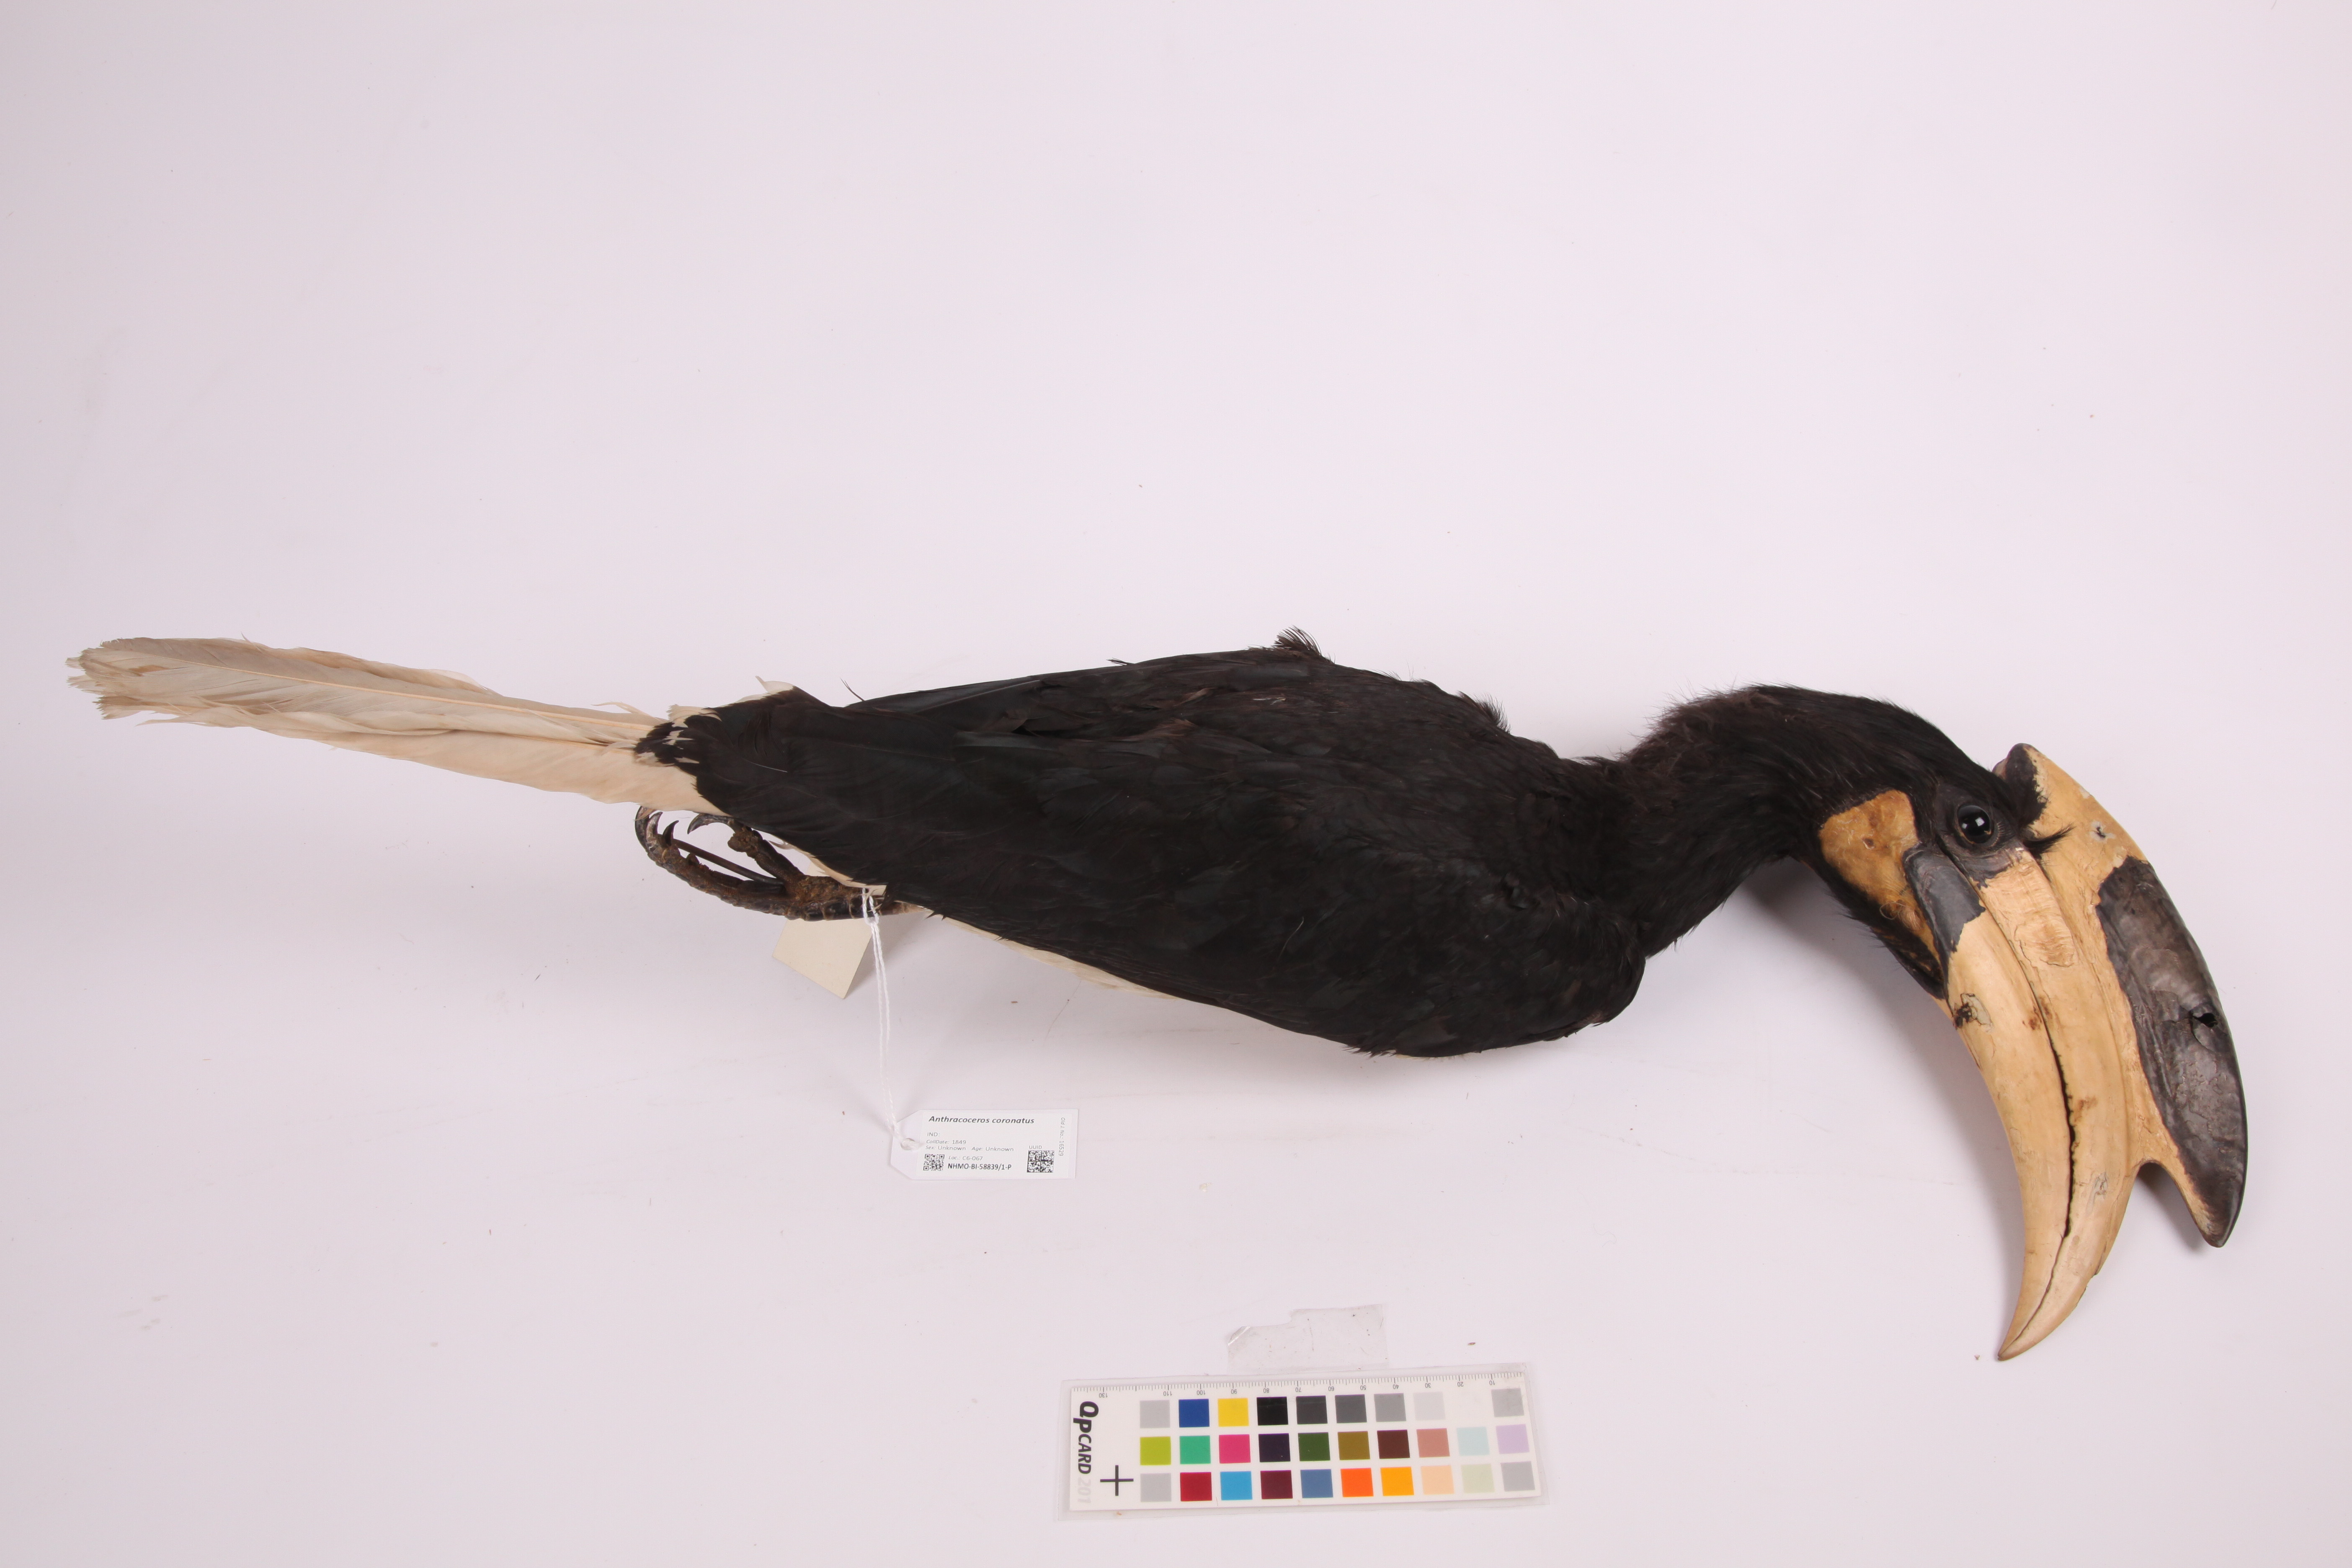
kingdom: Animalia
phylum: Chordata
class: Aves
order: Bucerotiformes
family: Bucerotidae
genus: Anthracoceros
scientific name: Anthracoceros coronatus
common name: Malabar pied hornbill
